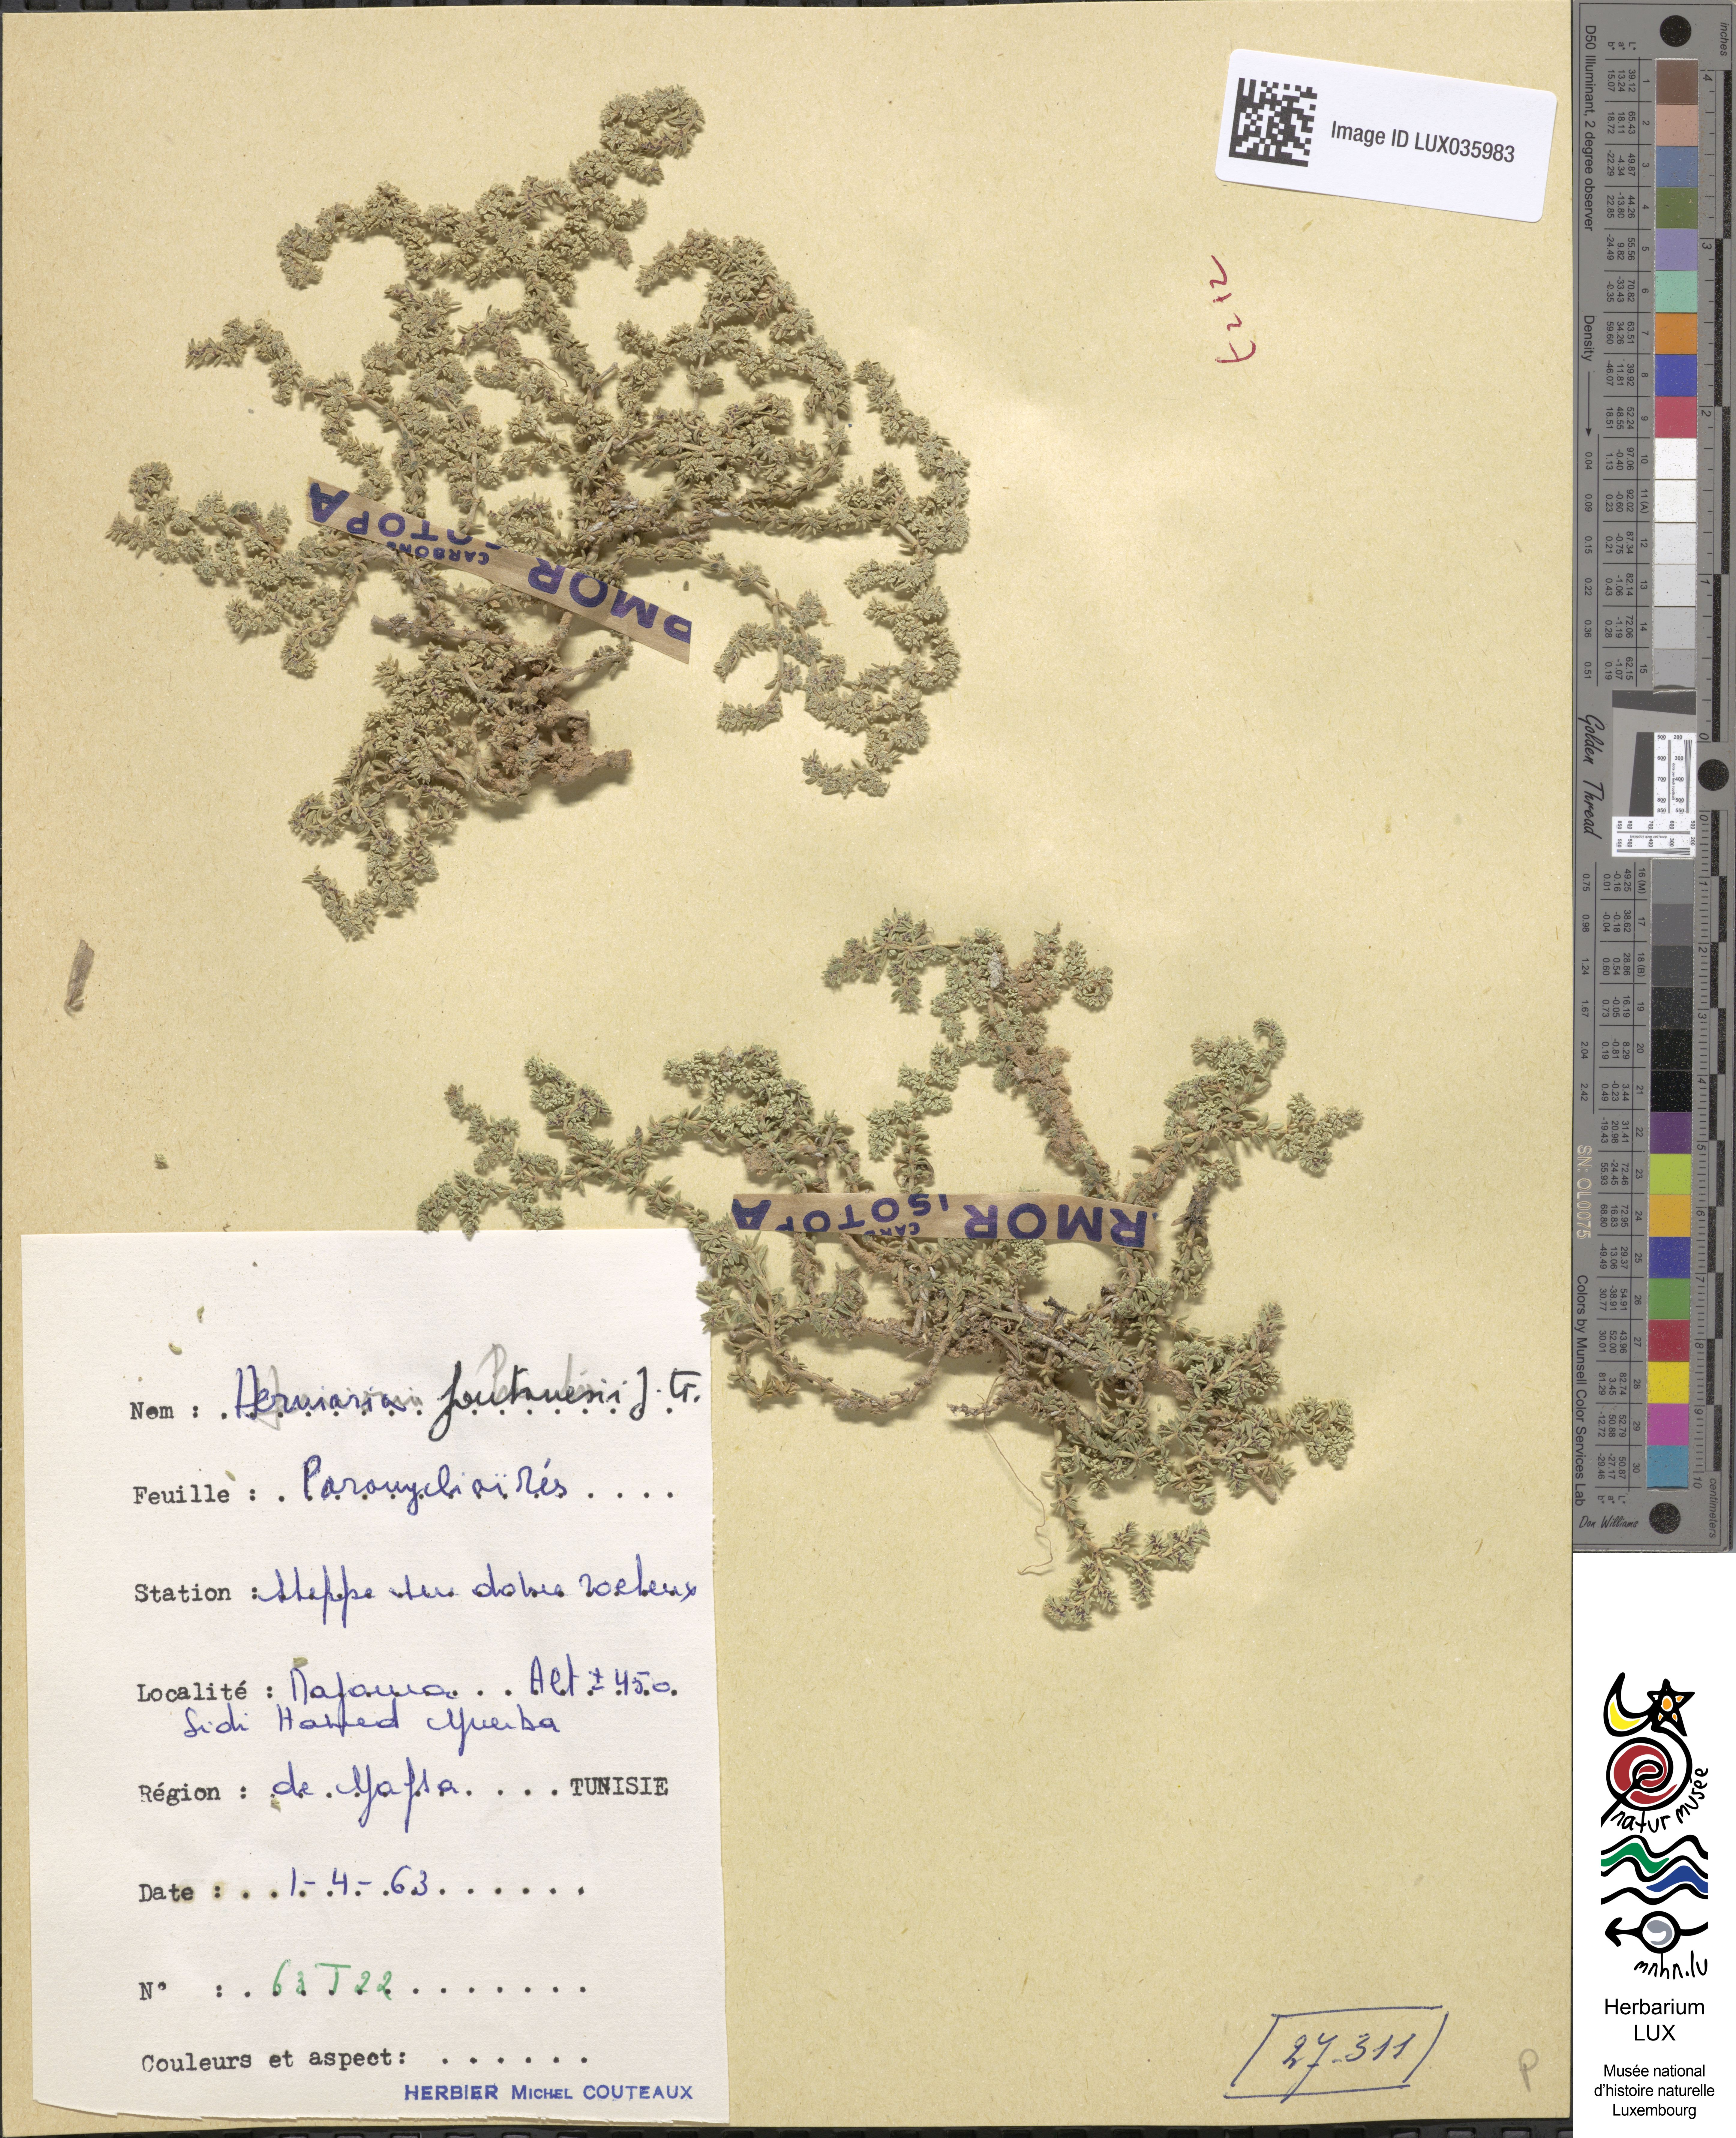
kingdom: Plantae
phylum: Tracheophyta
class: Magnoliopsida
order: Caryophyllales
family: Caryophyllaceae
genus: Herniaria
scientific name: Herniaria fontanesii
